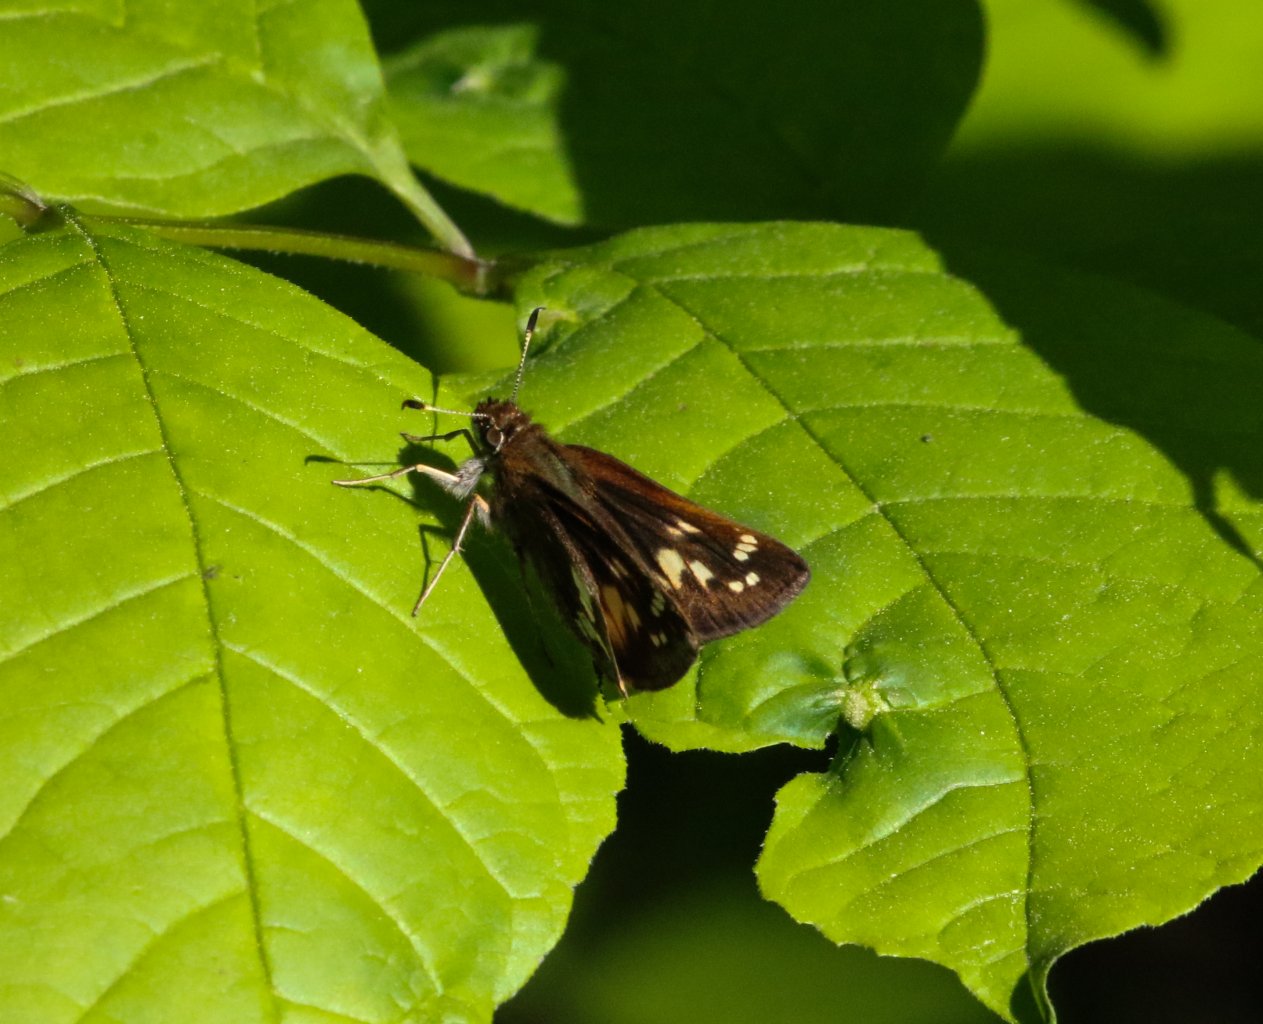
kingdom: Animalia
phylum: Arthropoda
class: Insecta
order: Lepidoptera
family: Hesperiidae
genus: Mastor
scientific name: Mastor hegon
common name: Pepper and Salt Skipper
